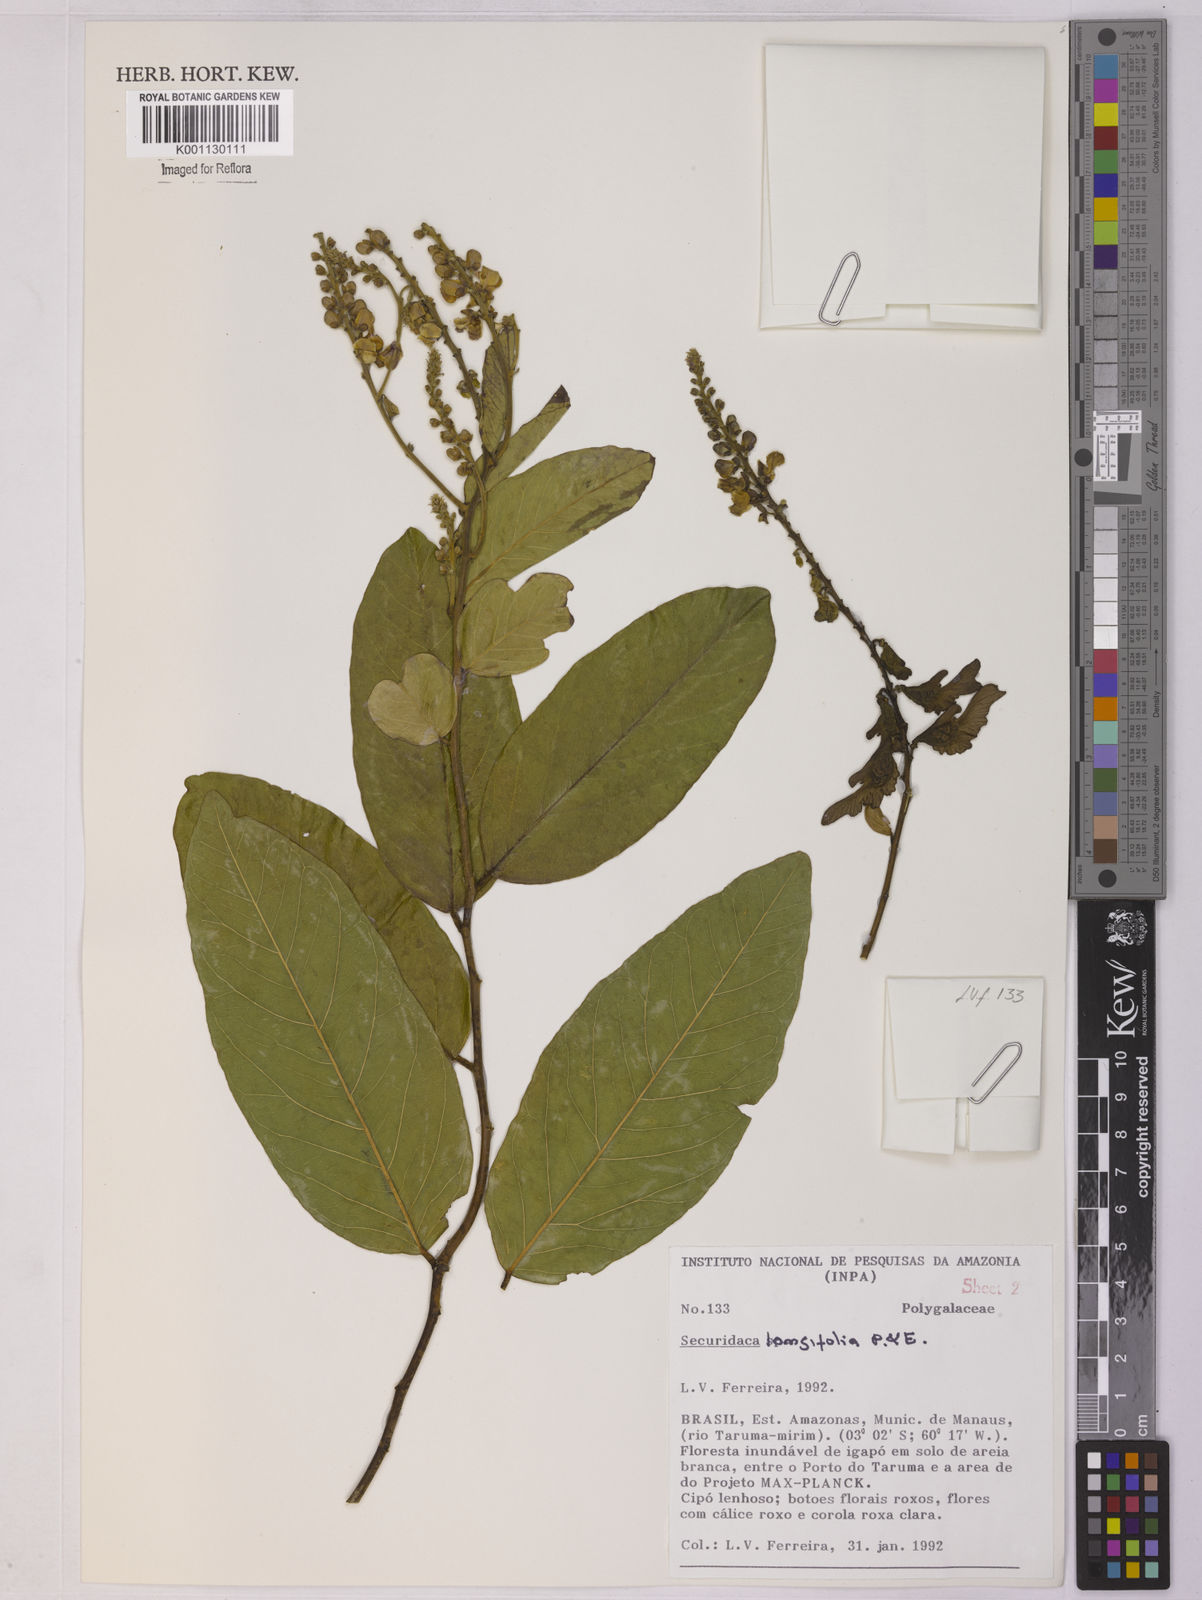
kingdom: Plantae
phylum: Tracheophyta
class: Magnoliopsida
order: Fabales
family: Polygalaceae
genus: Securidaca
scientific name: Securidaca longifolia
